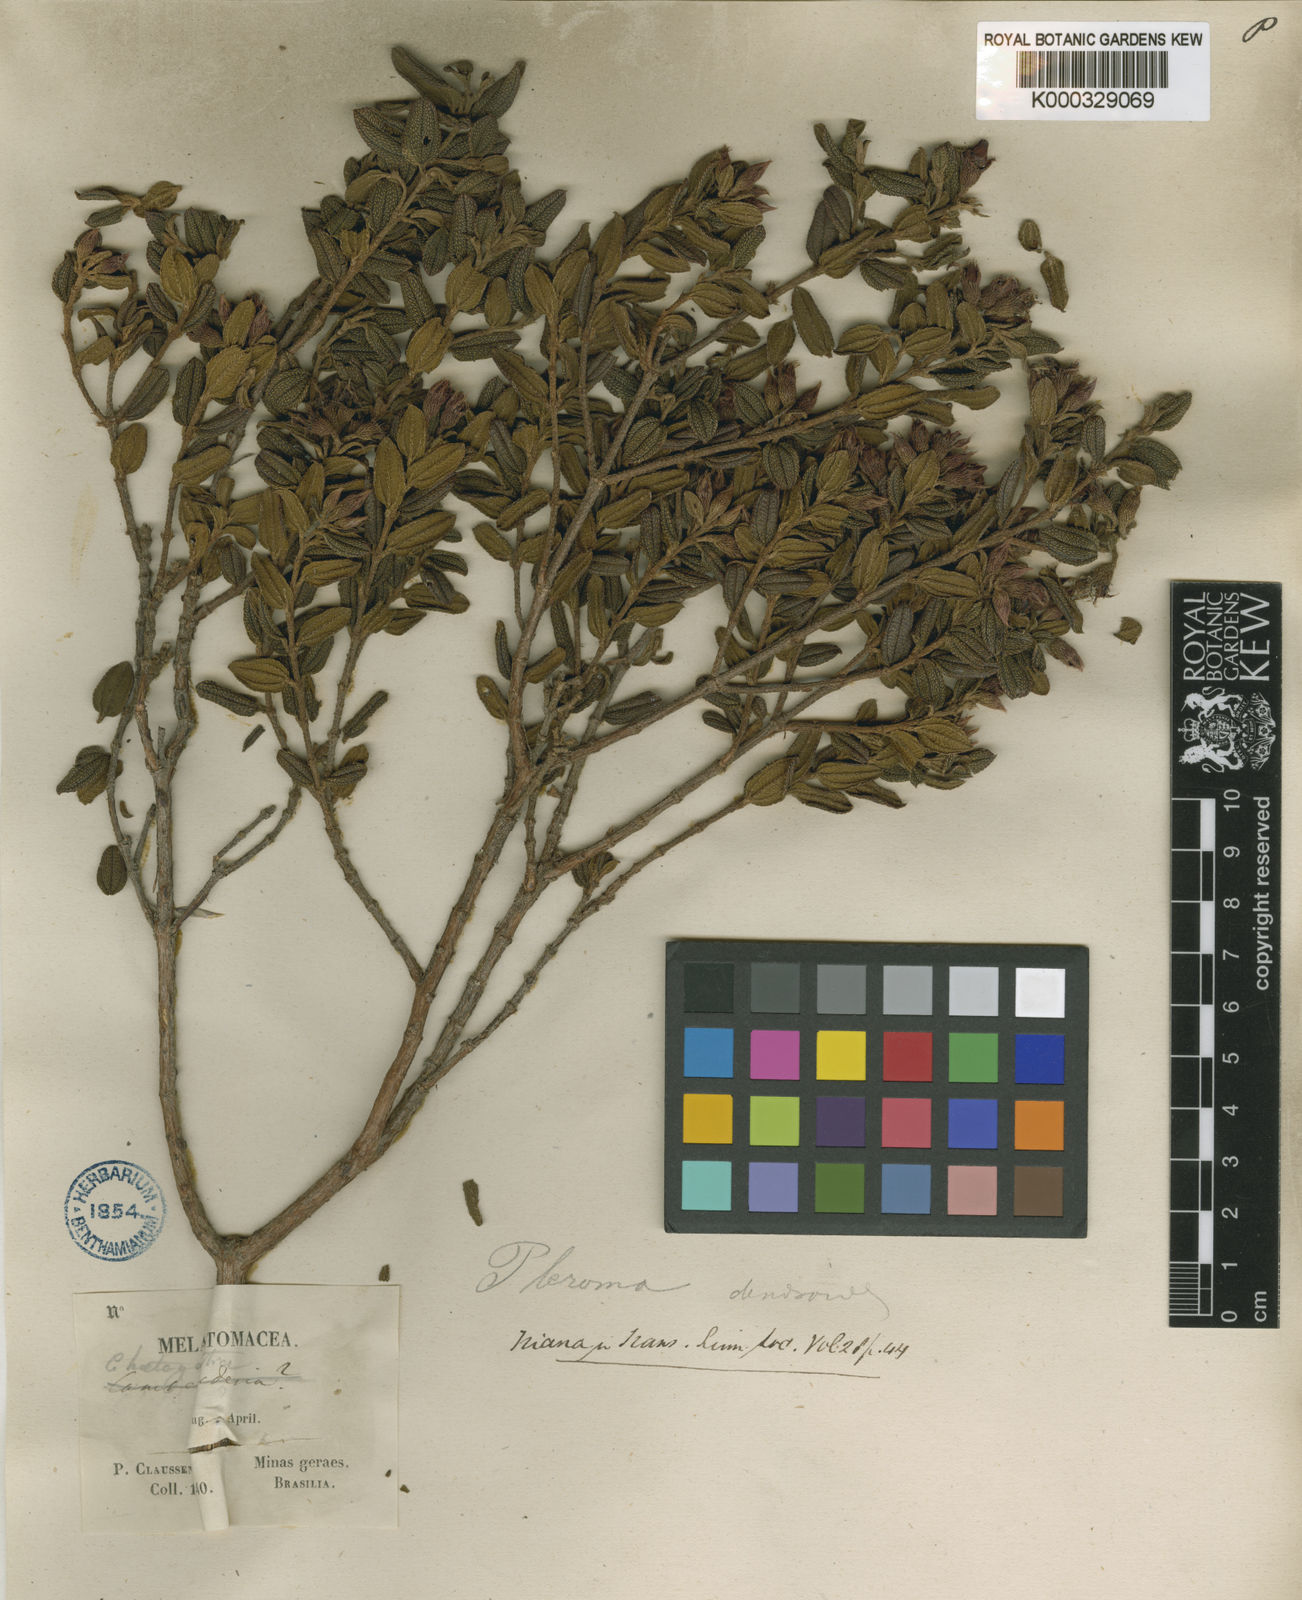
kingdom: Plantae
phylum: Tracheophyta
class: Magnoliopsida
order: Myrtales
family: Melastomataceae
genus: Pleroma
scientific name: Pleroma dendroides
